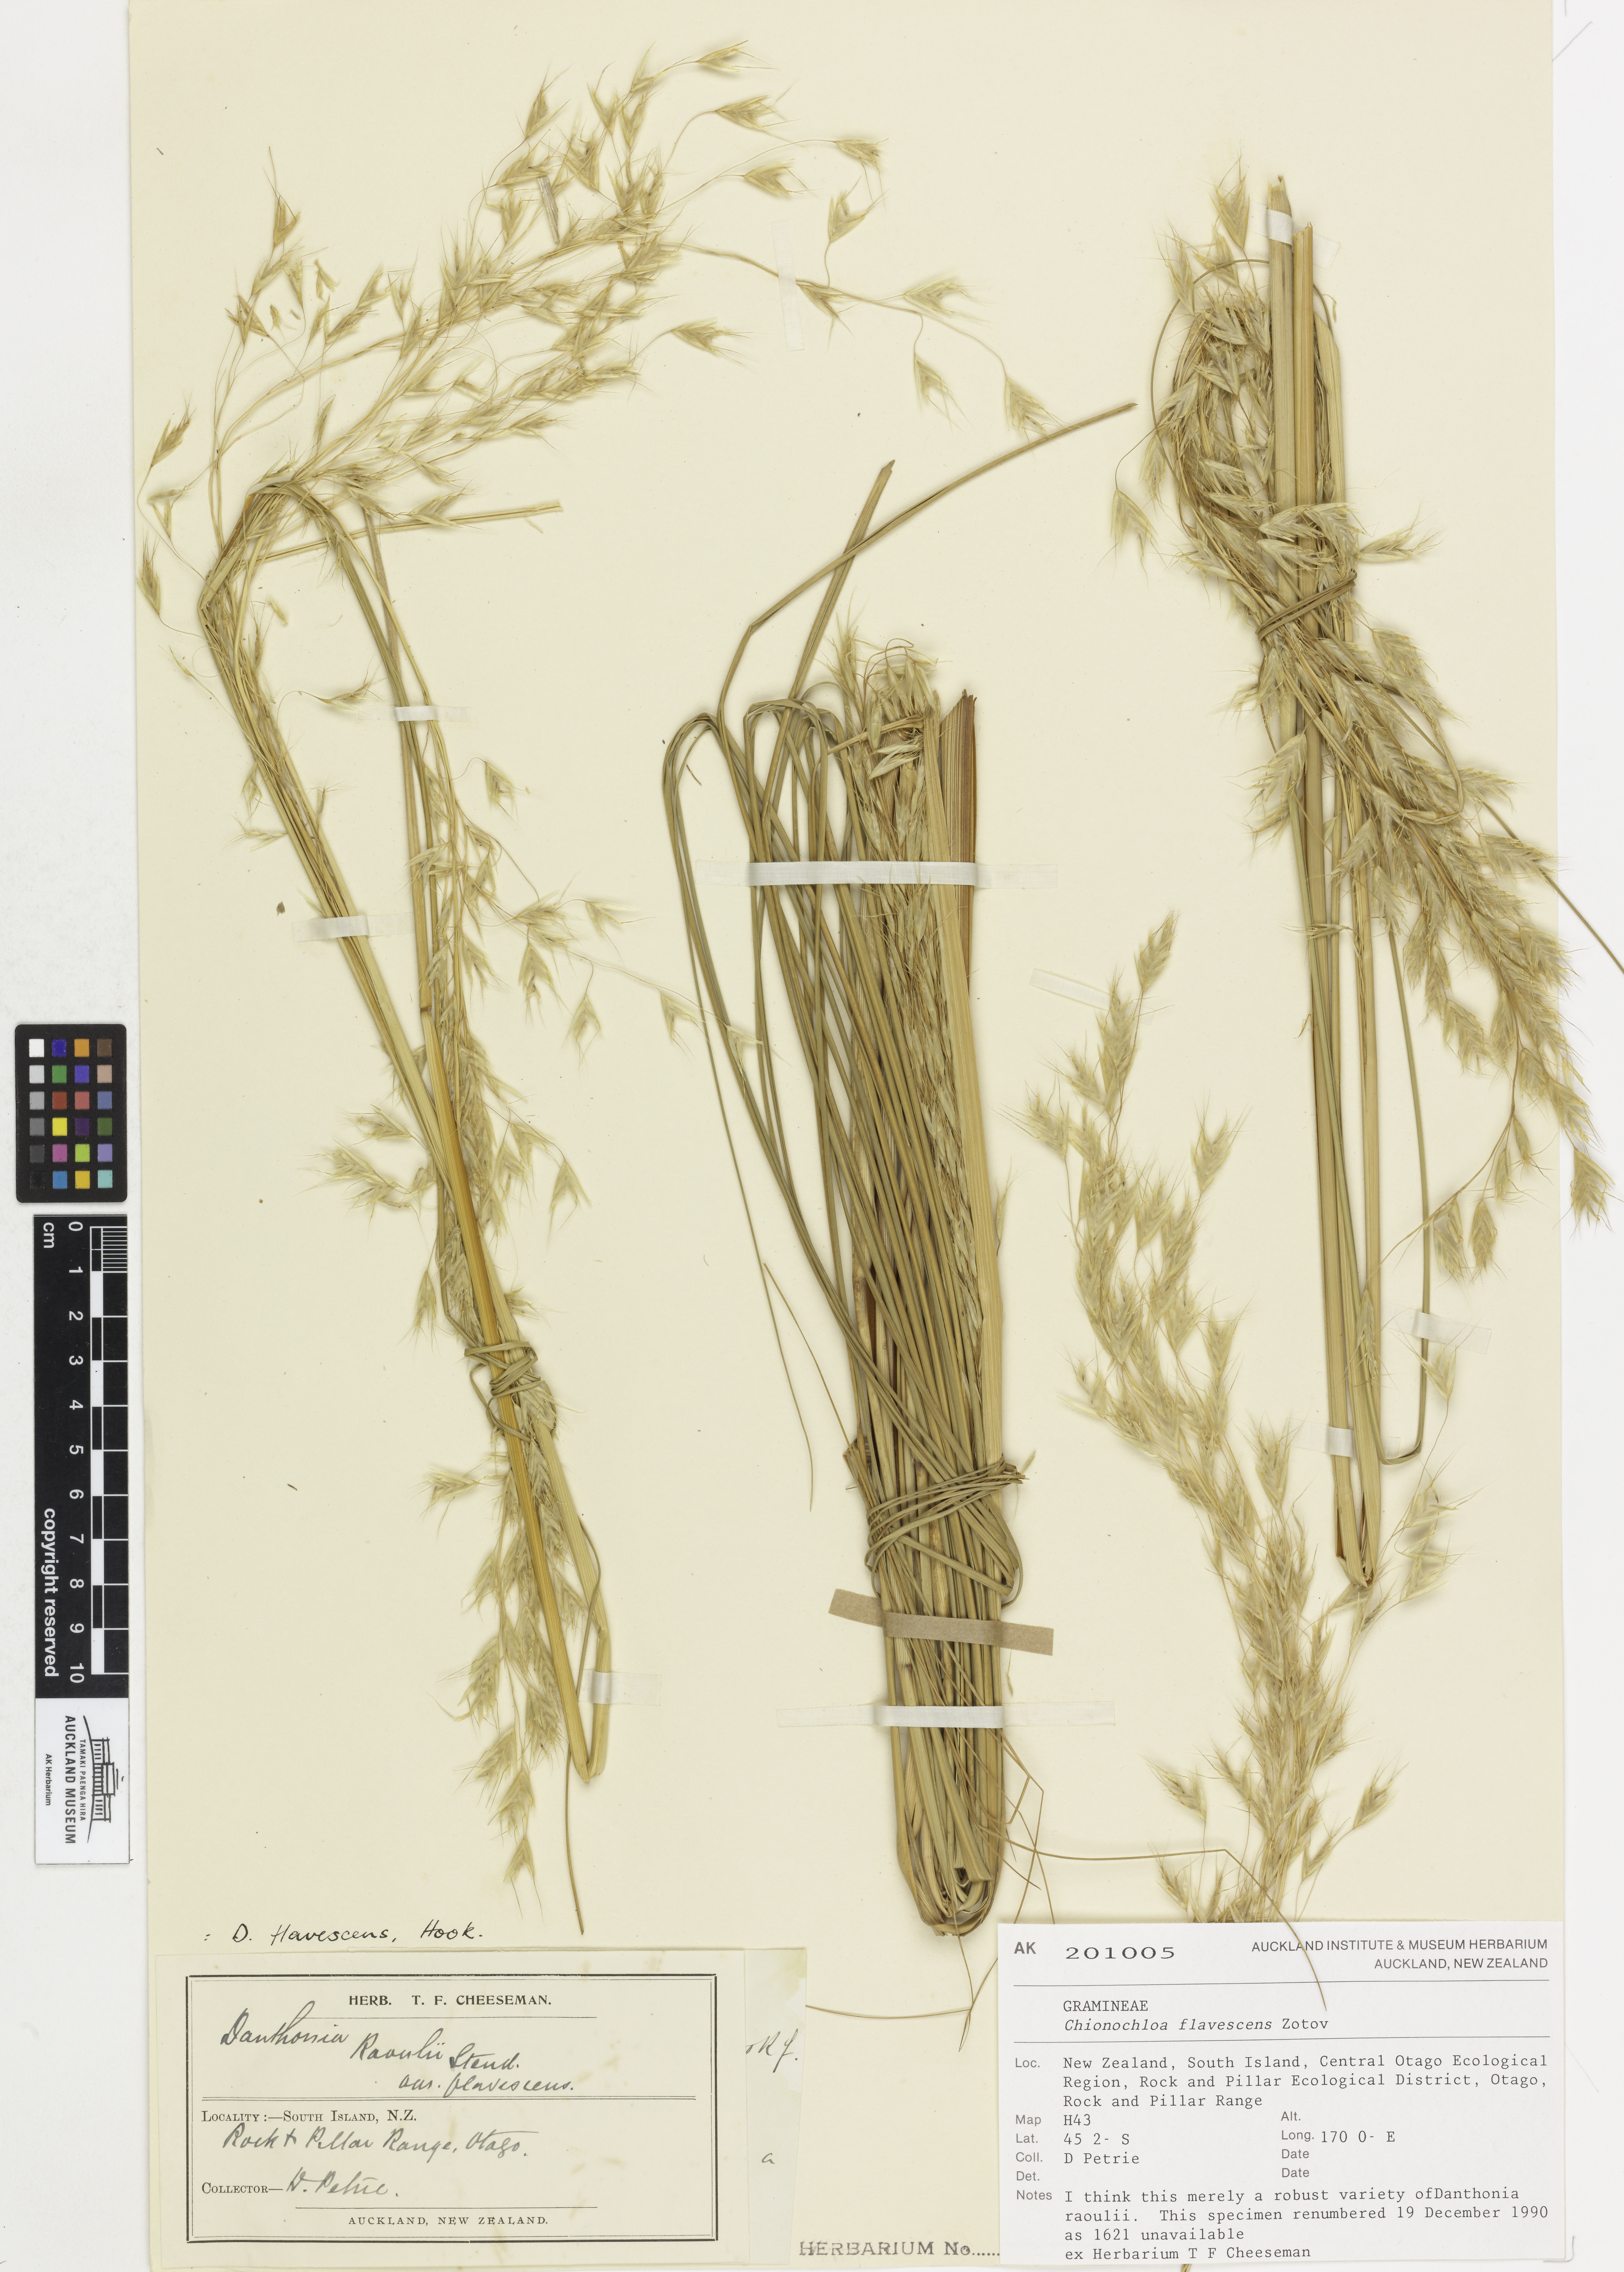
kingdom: Plantae
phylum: Tracheophyta
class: Liliopsida
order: Poales
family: Poaceae
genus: Chionochloa
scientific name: Chionochloa flavescens
